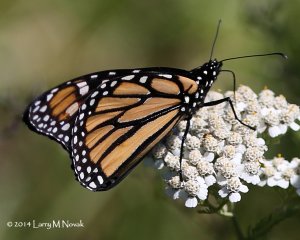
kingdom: Animalia
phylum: Arthropoda
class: Insecta
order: Lepidoptera
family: Nymphalidae
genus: Danaus
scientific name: Danaus plexippus
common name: Monarch
